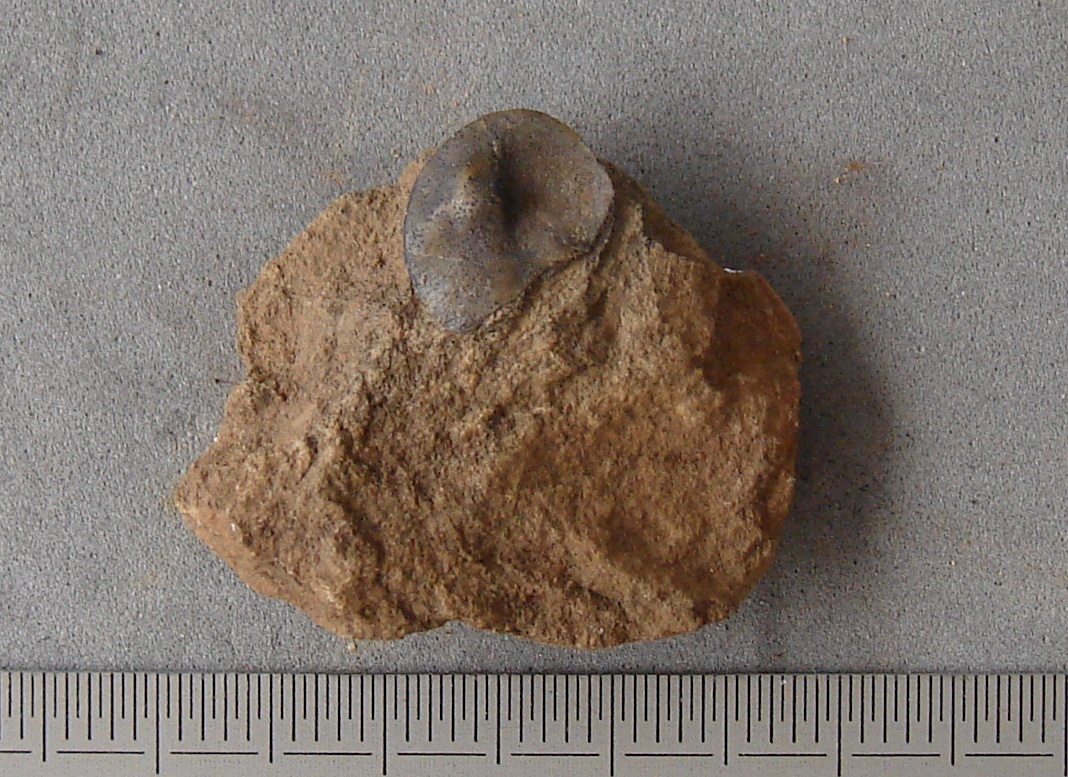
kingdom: Animalia
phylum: Mollusca
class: Bivalvia
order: Ostreida
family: Ostreidae
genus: Ostrea
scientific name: Ostrea calceola
